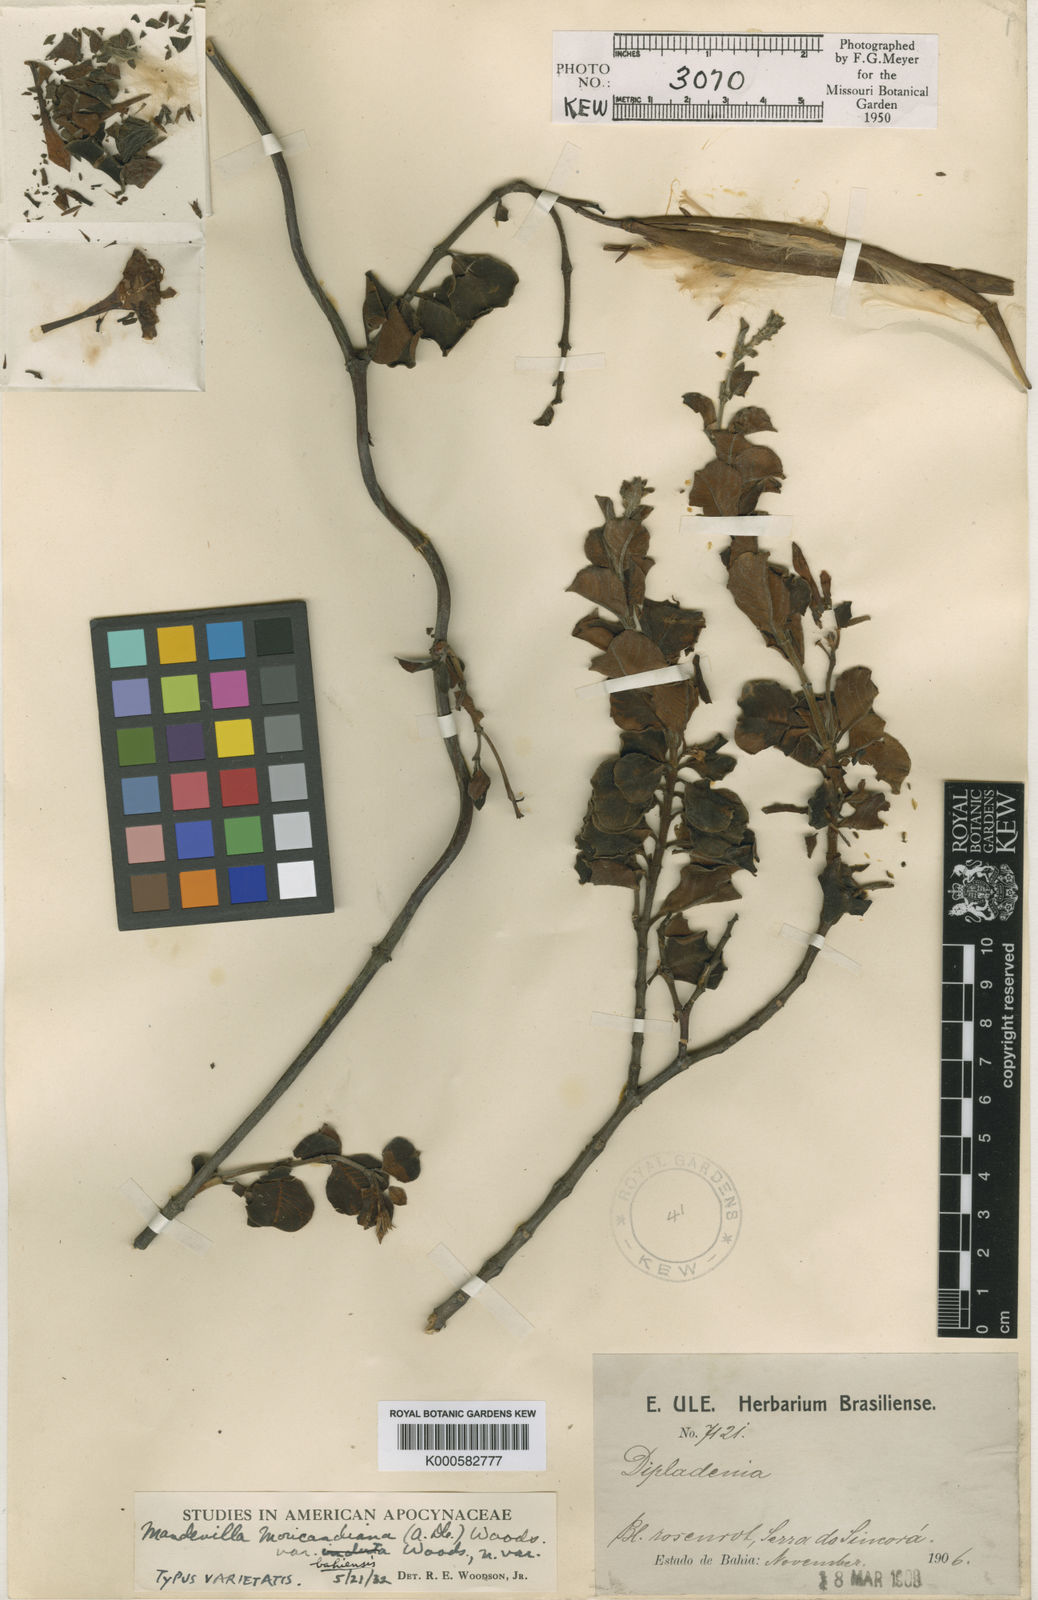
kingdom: Plantae
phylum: Tracheophyta
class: Magnoliopsida
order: Gentianales
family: Apocynaceae
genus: Mandevilla
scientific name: Mandevilla bahiensis
